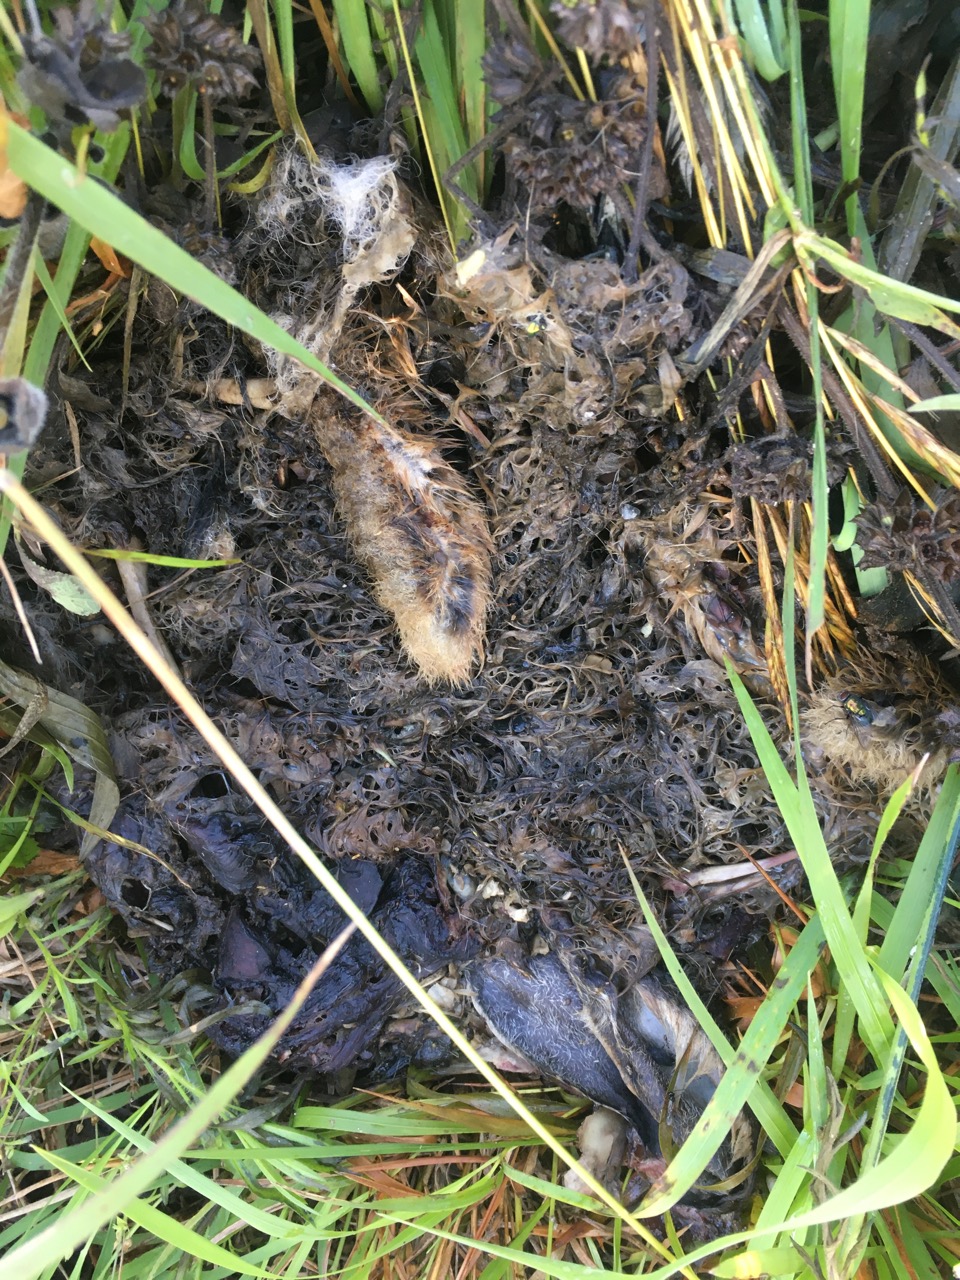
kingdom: Animalia
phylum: Chordata
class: Mammalia
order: Lagomorpha
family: Leporidae
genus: Lepus
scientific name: Lepus europaeus
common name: European hare
